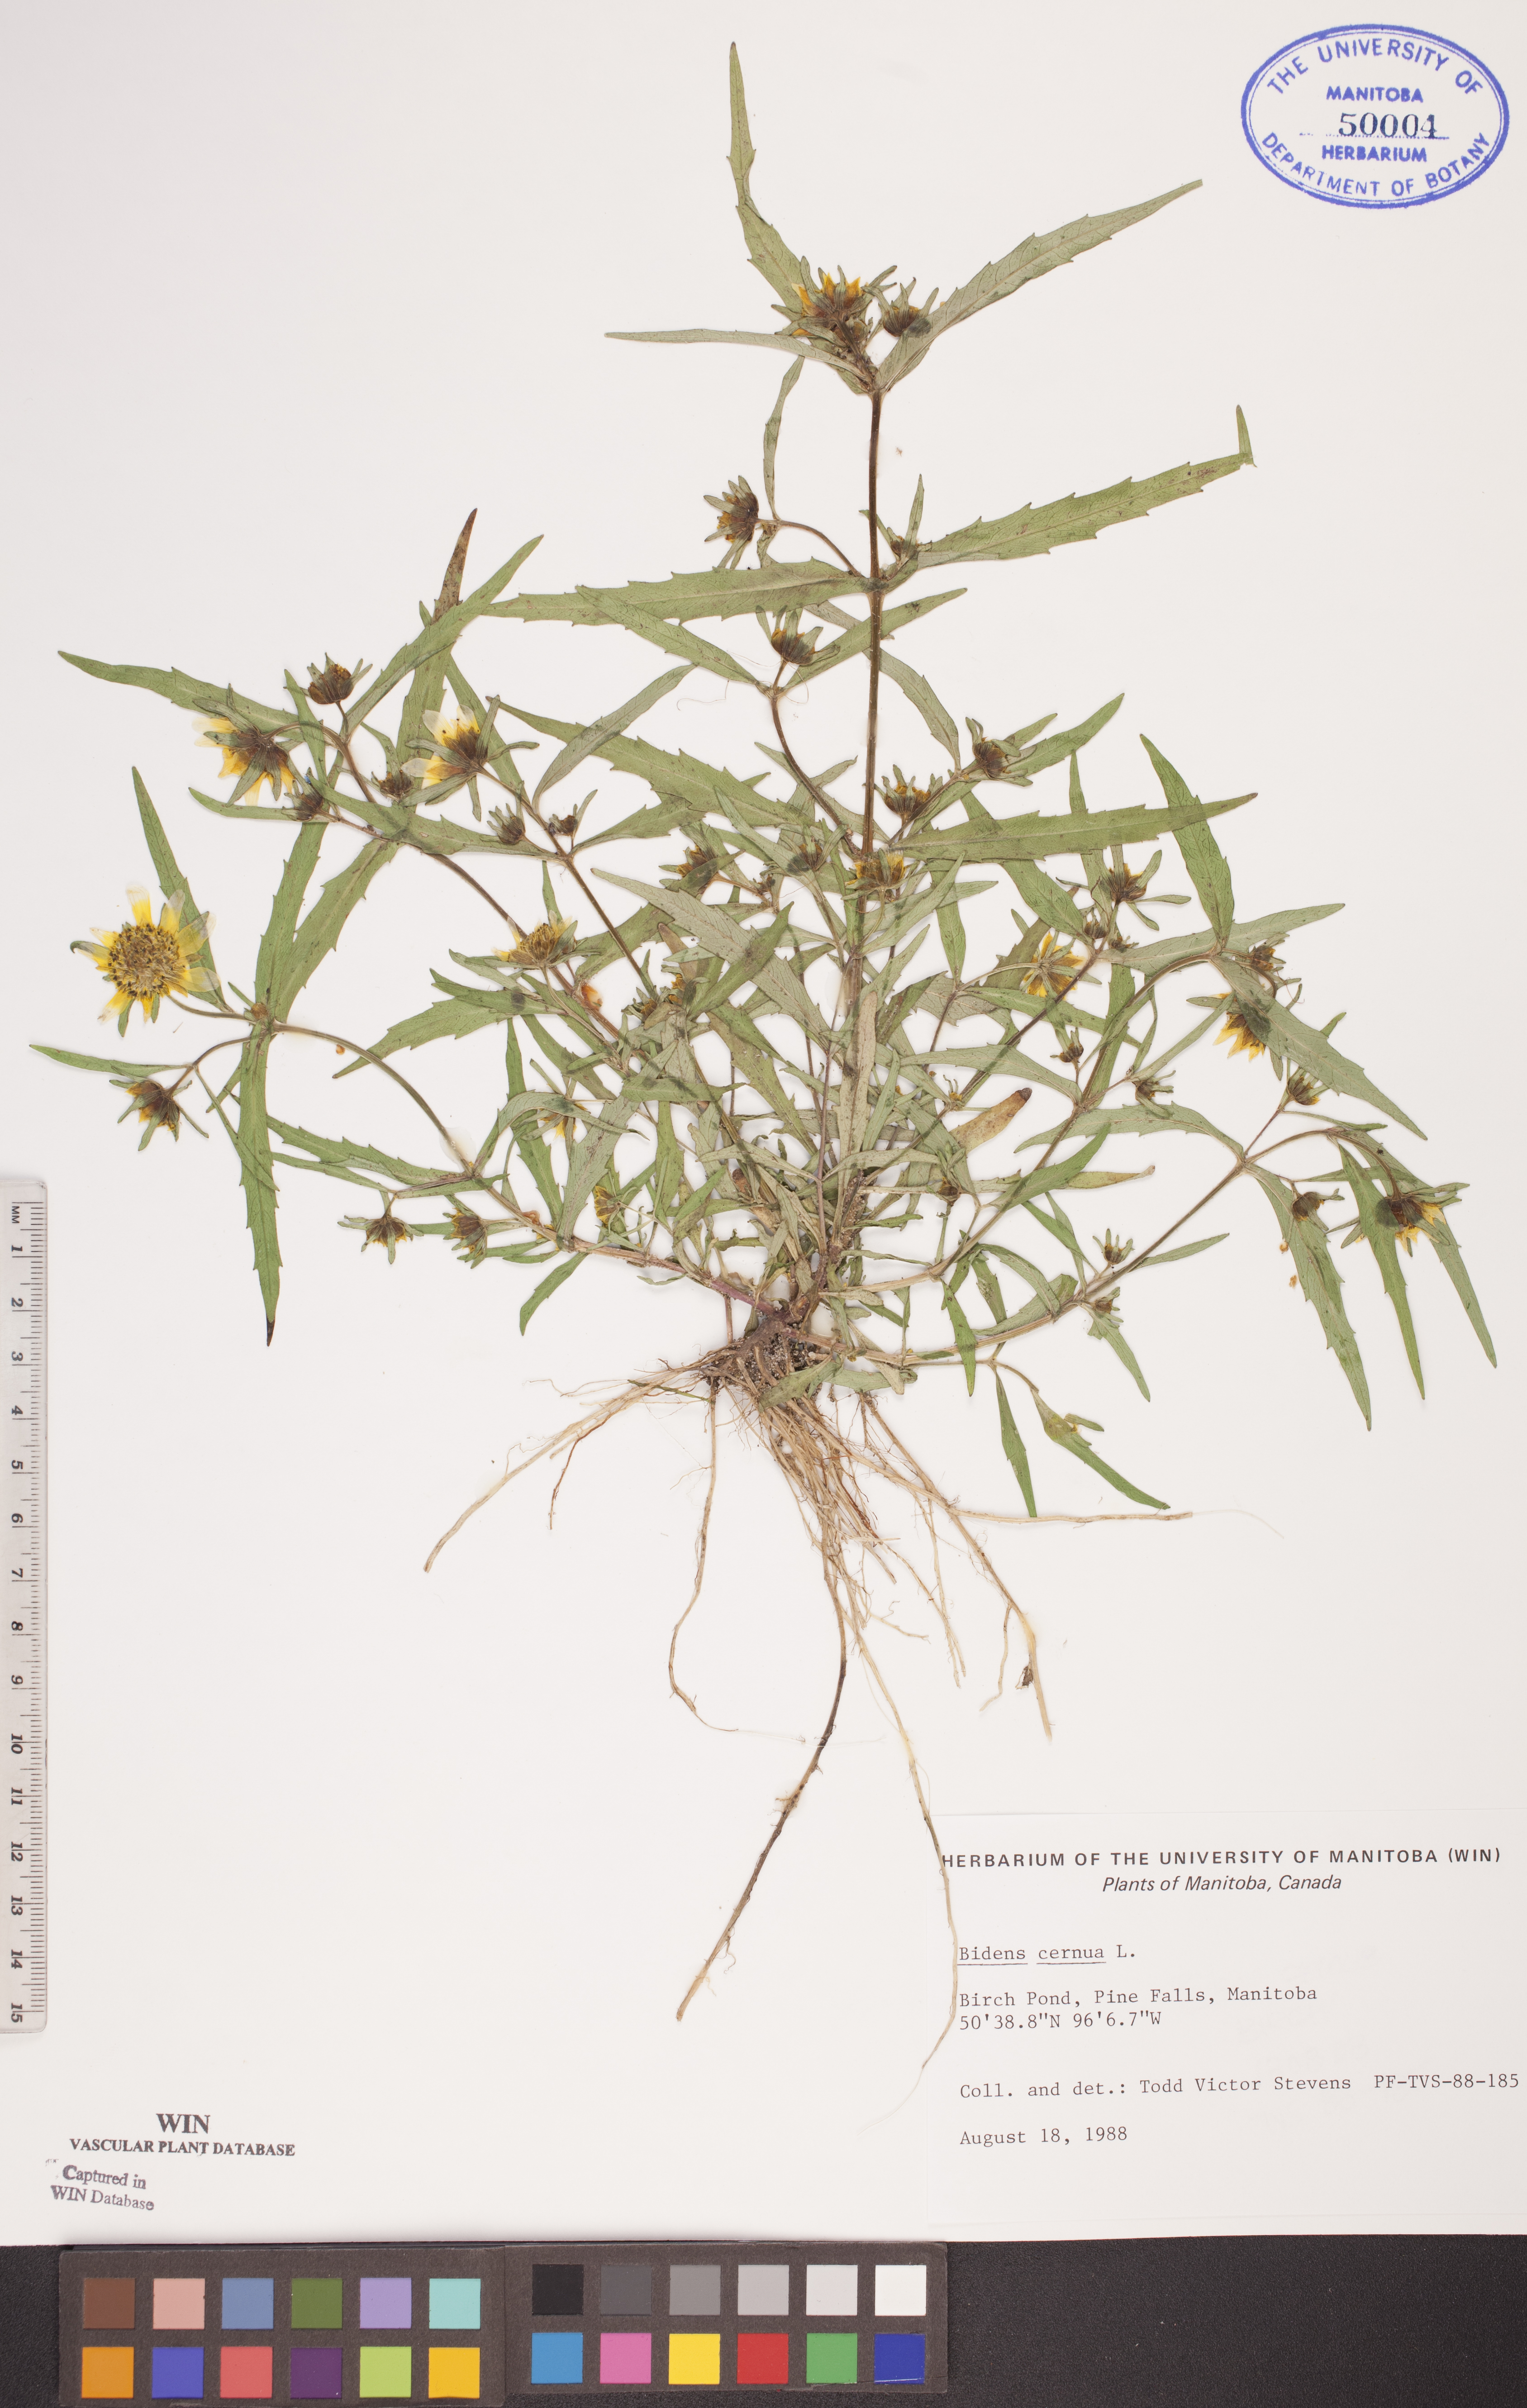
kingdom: Plantae
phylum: Tracheophyta
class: Magnoliopsida
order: Asterales
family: Asteraceae
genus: Bidens
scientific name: Bidens cernua
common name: Nodding bur-marigold
